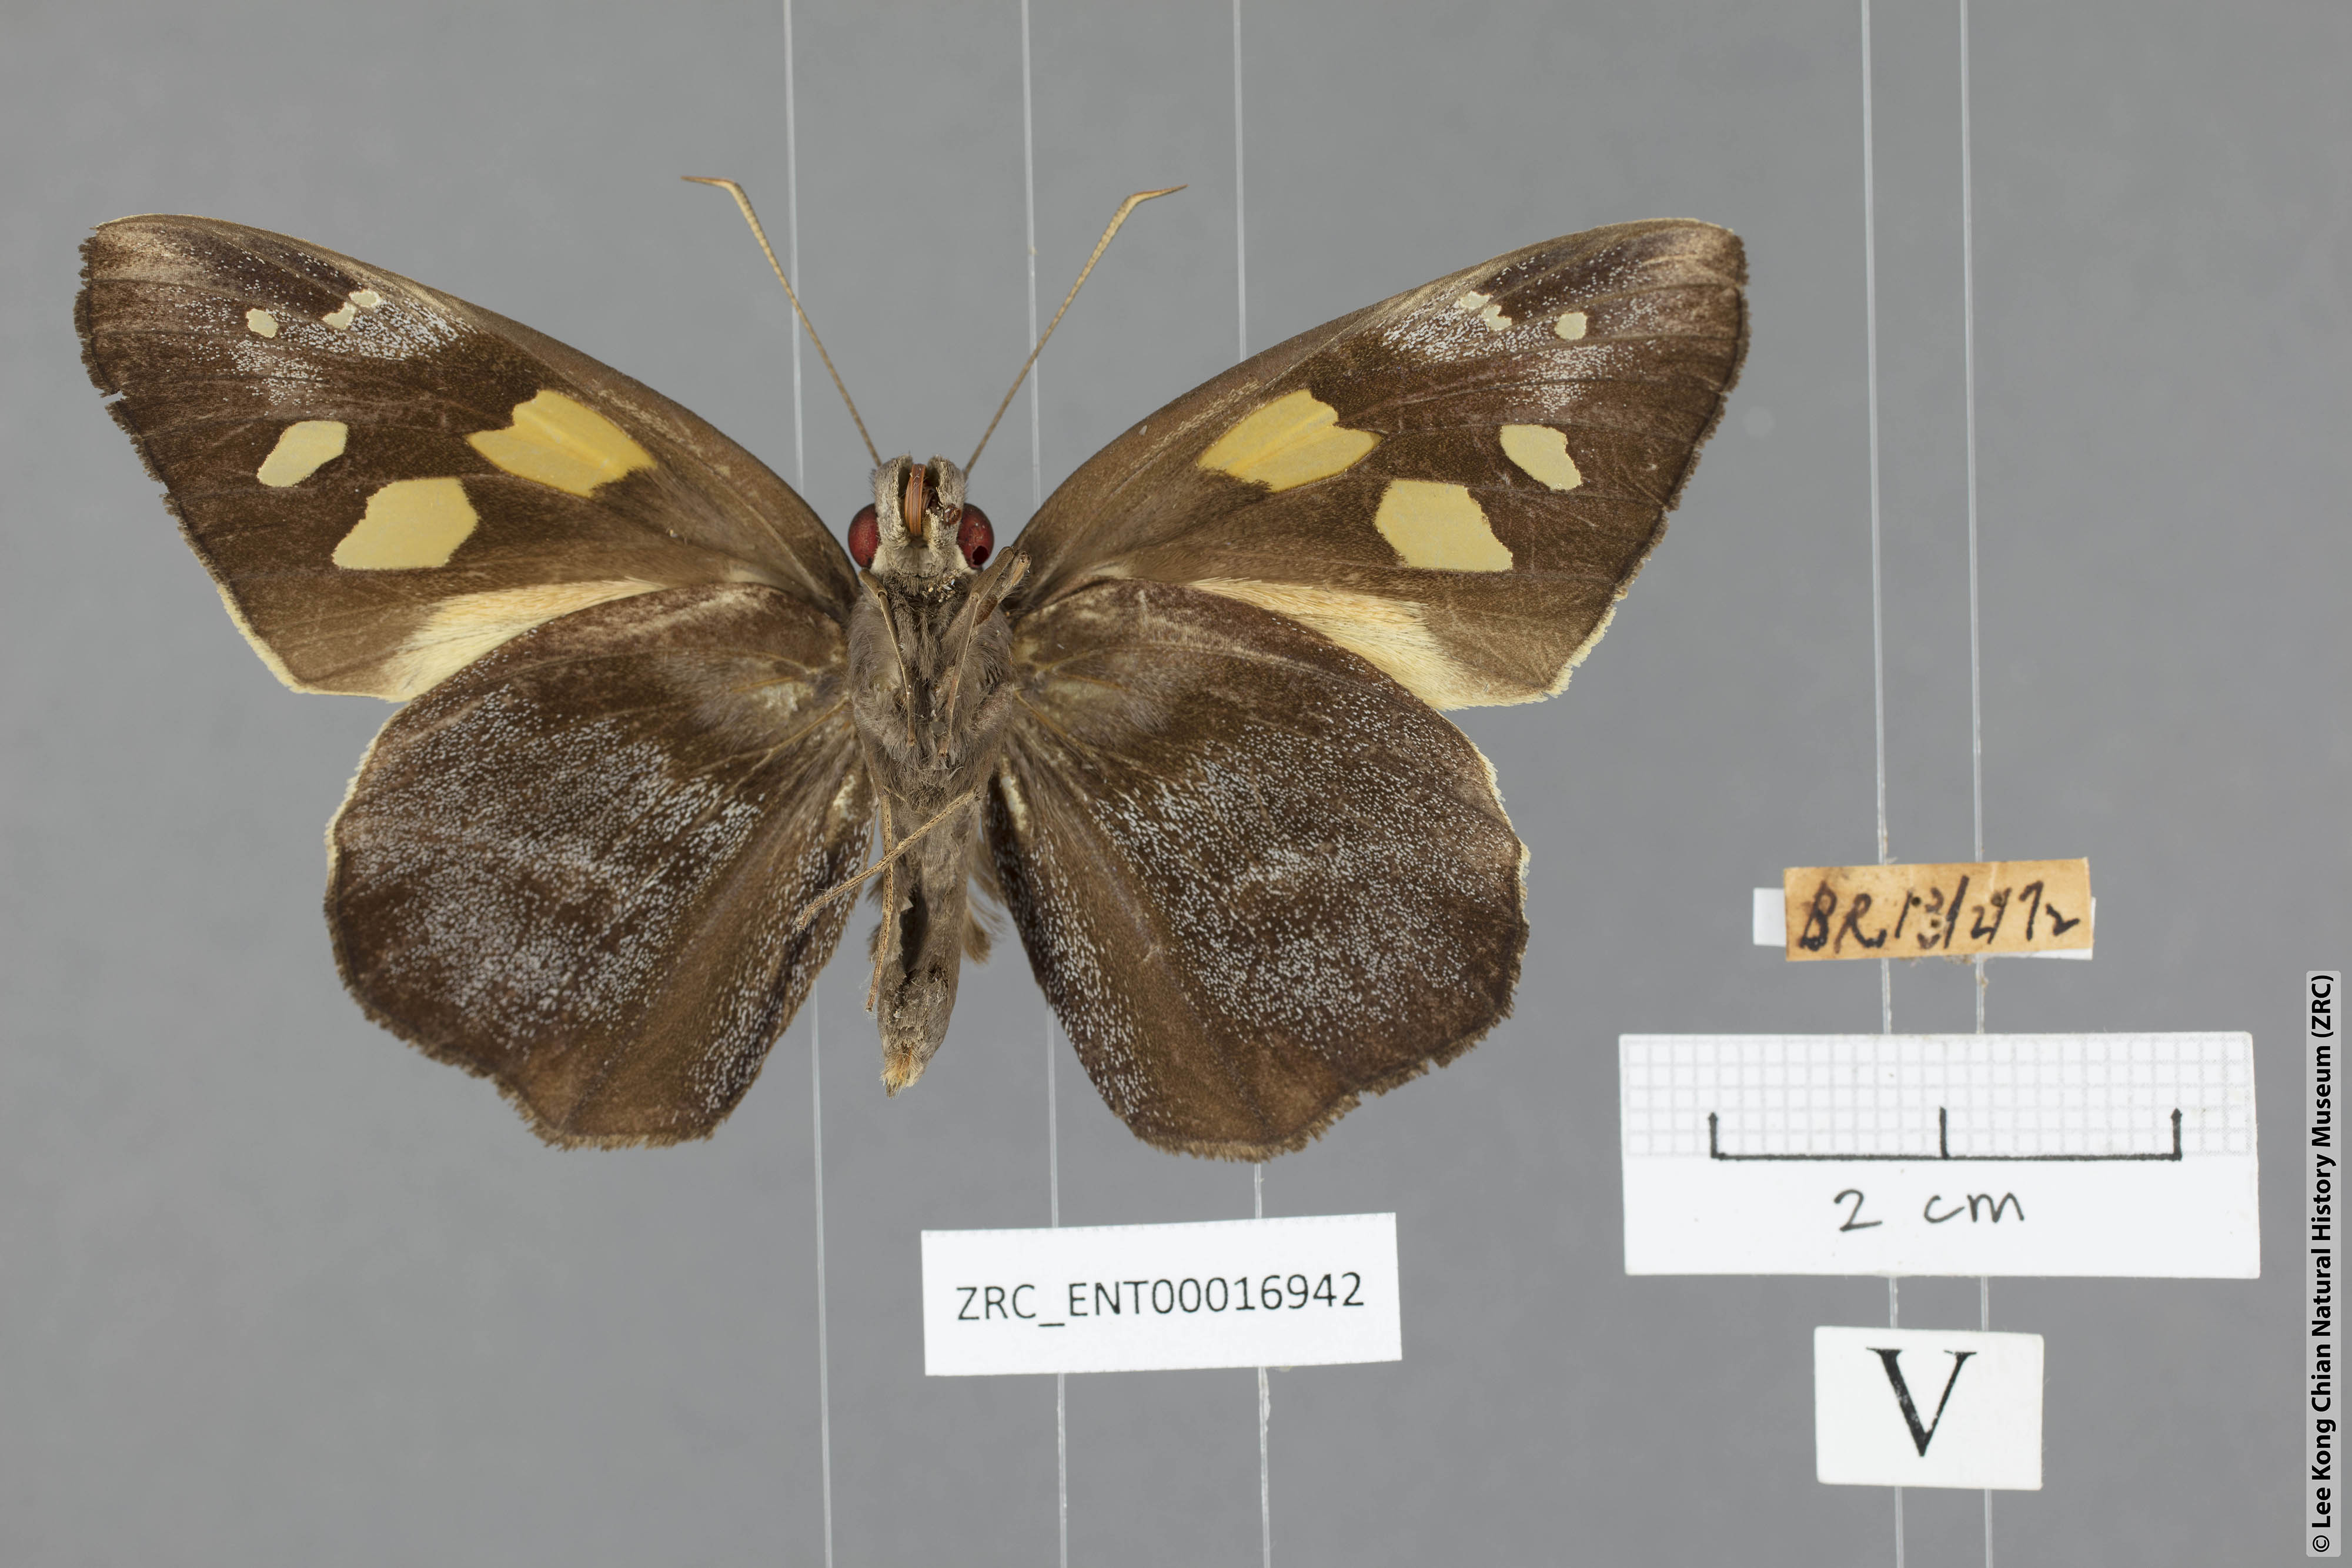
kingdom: Animalia
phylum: Arthropoda
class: Insecta
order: Lepidoptera
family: Hesperiidae
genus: Gangara
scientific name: Gangara thyrsis
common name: Giant redeye
